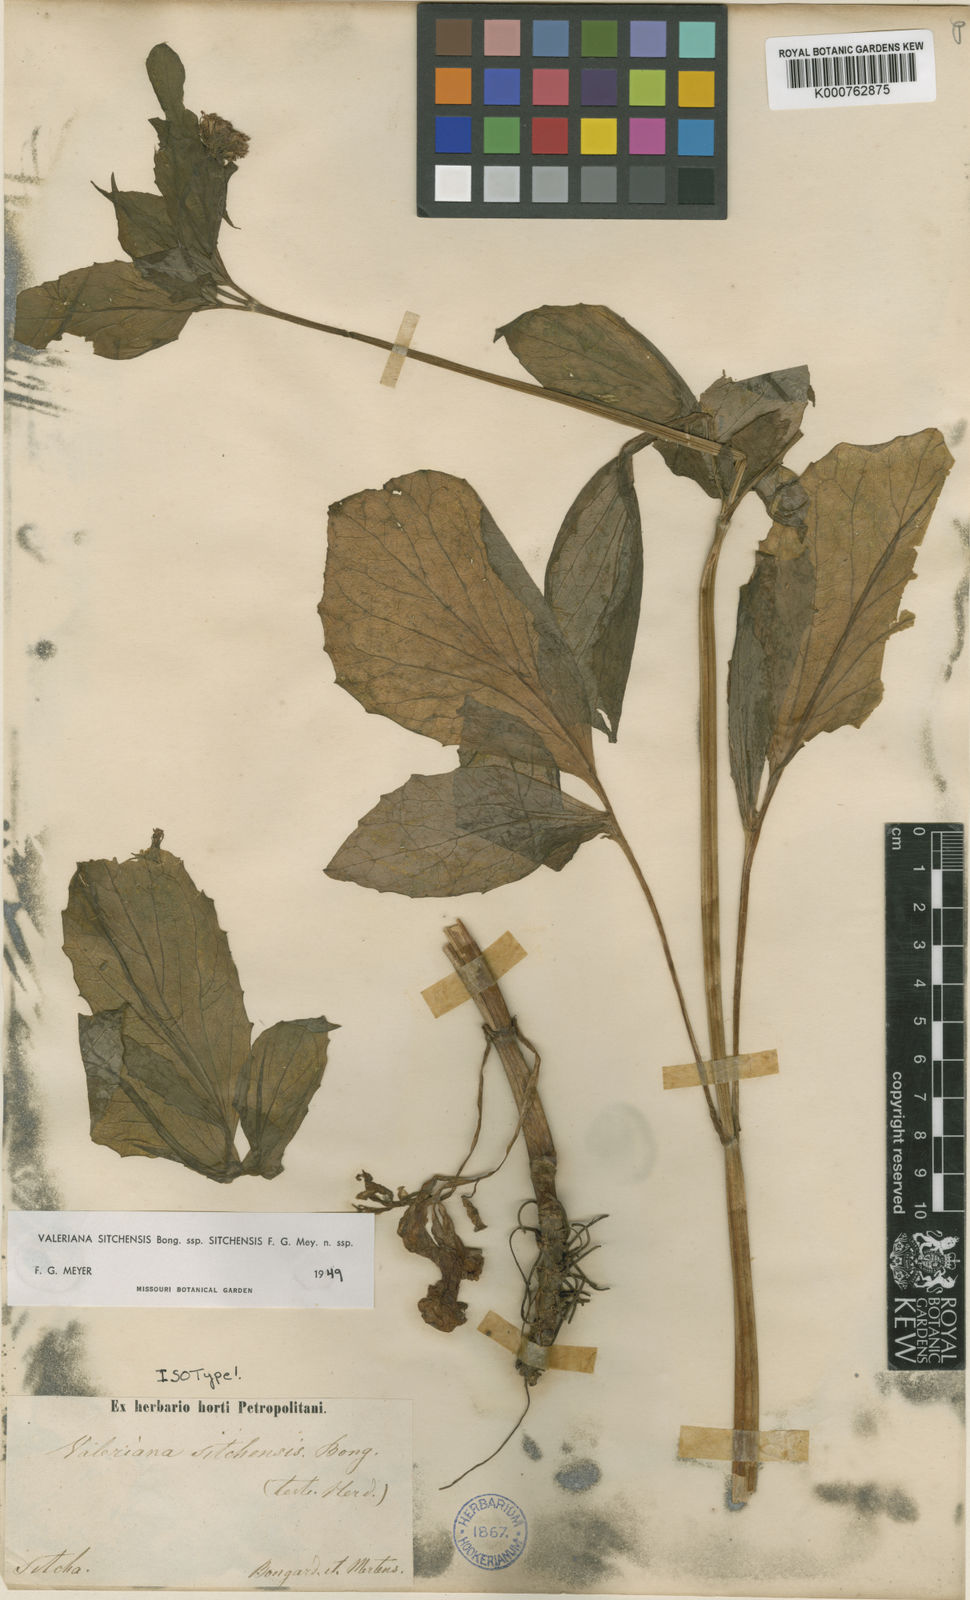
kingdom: Plantae
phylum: Tracheophyta
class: Magnoliopsida
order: Dipsacales
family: Caprifoliaceae
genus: Valeriana
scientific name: Valeriana sitchensis
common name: Pacific valerian
